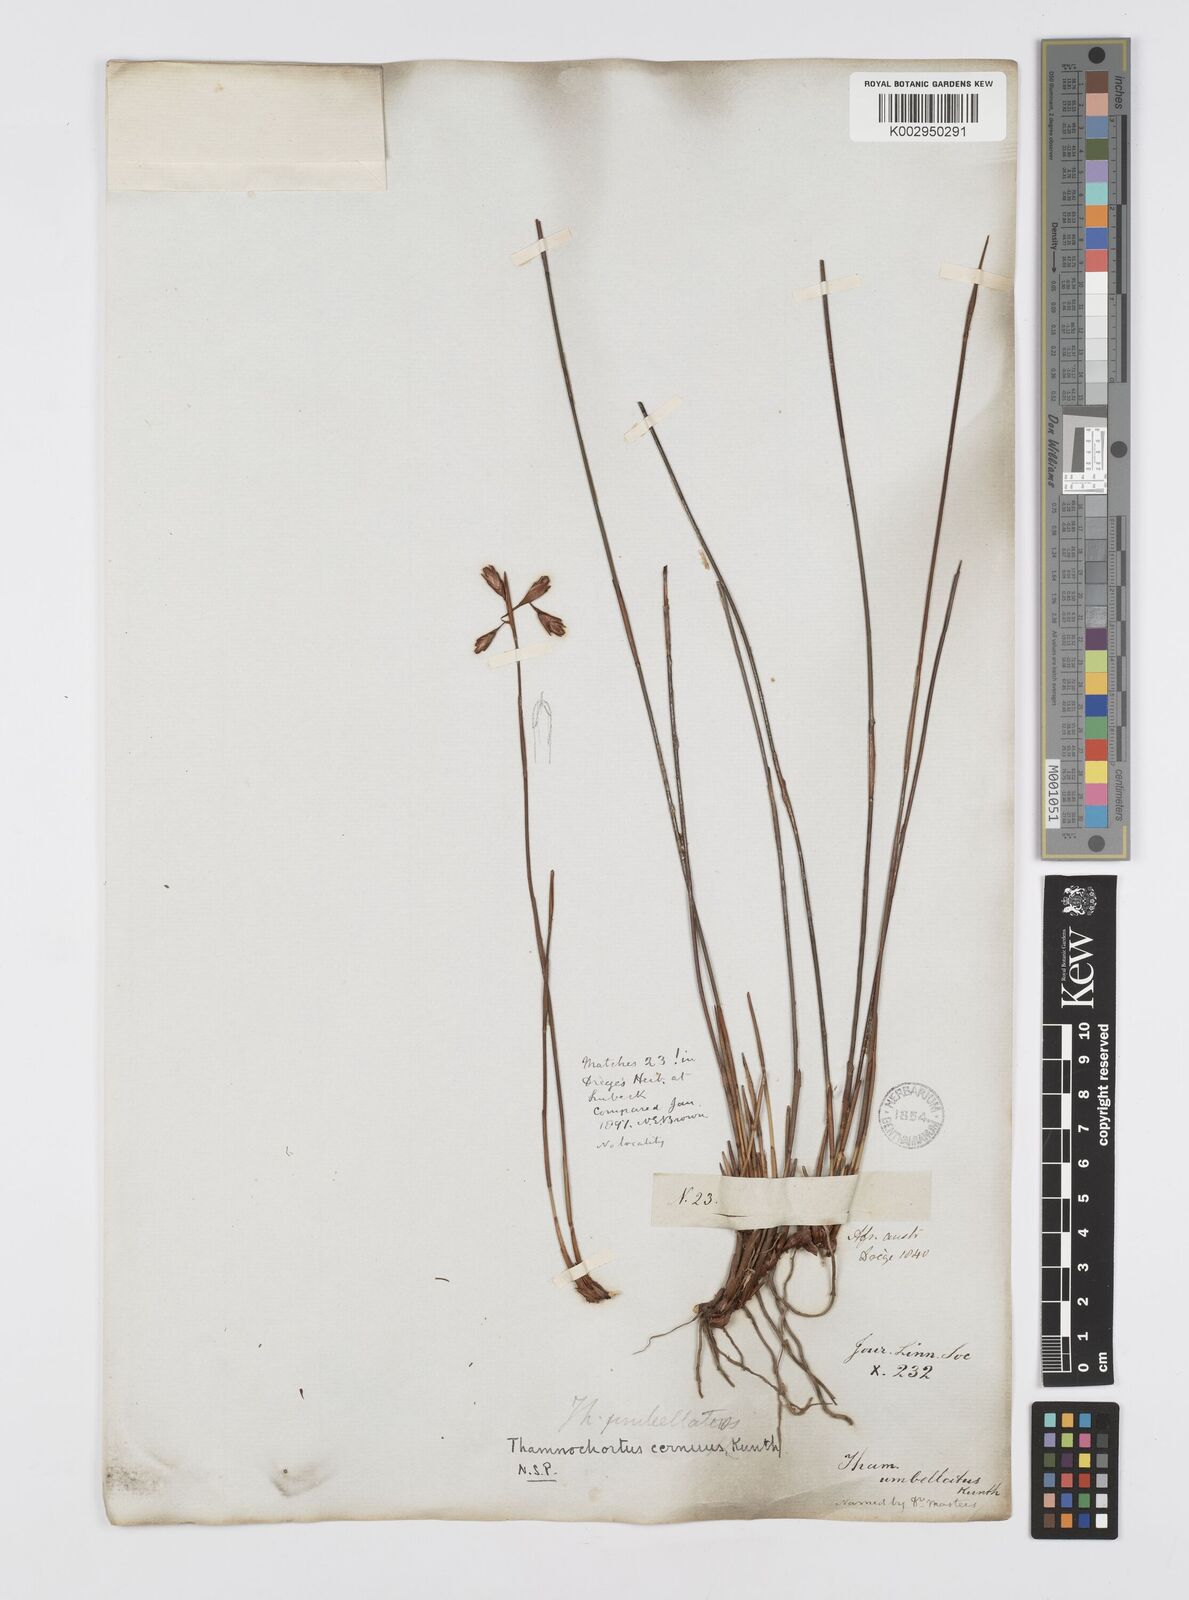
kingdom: Plantae
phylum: Tracheophyta
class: Liliopsida
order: Poales
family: Restionaceae
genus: Staberoha
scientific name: Staberoha cernua
